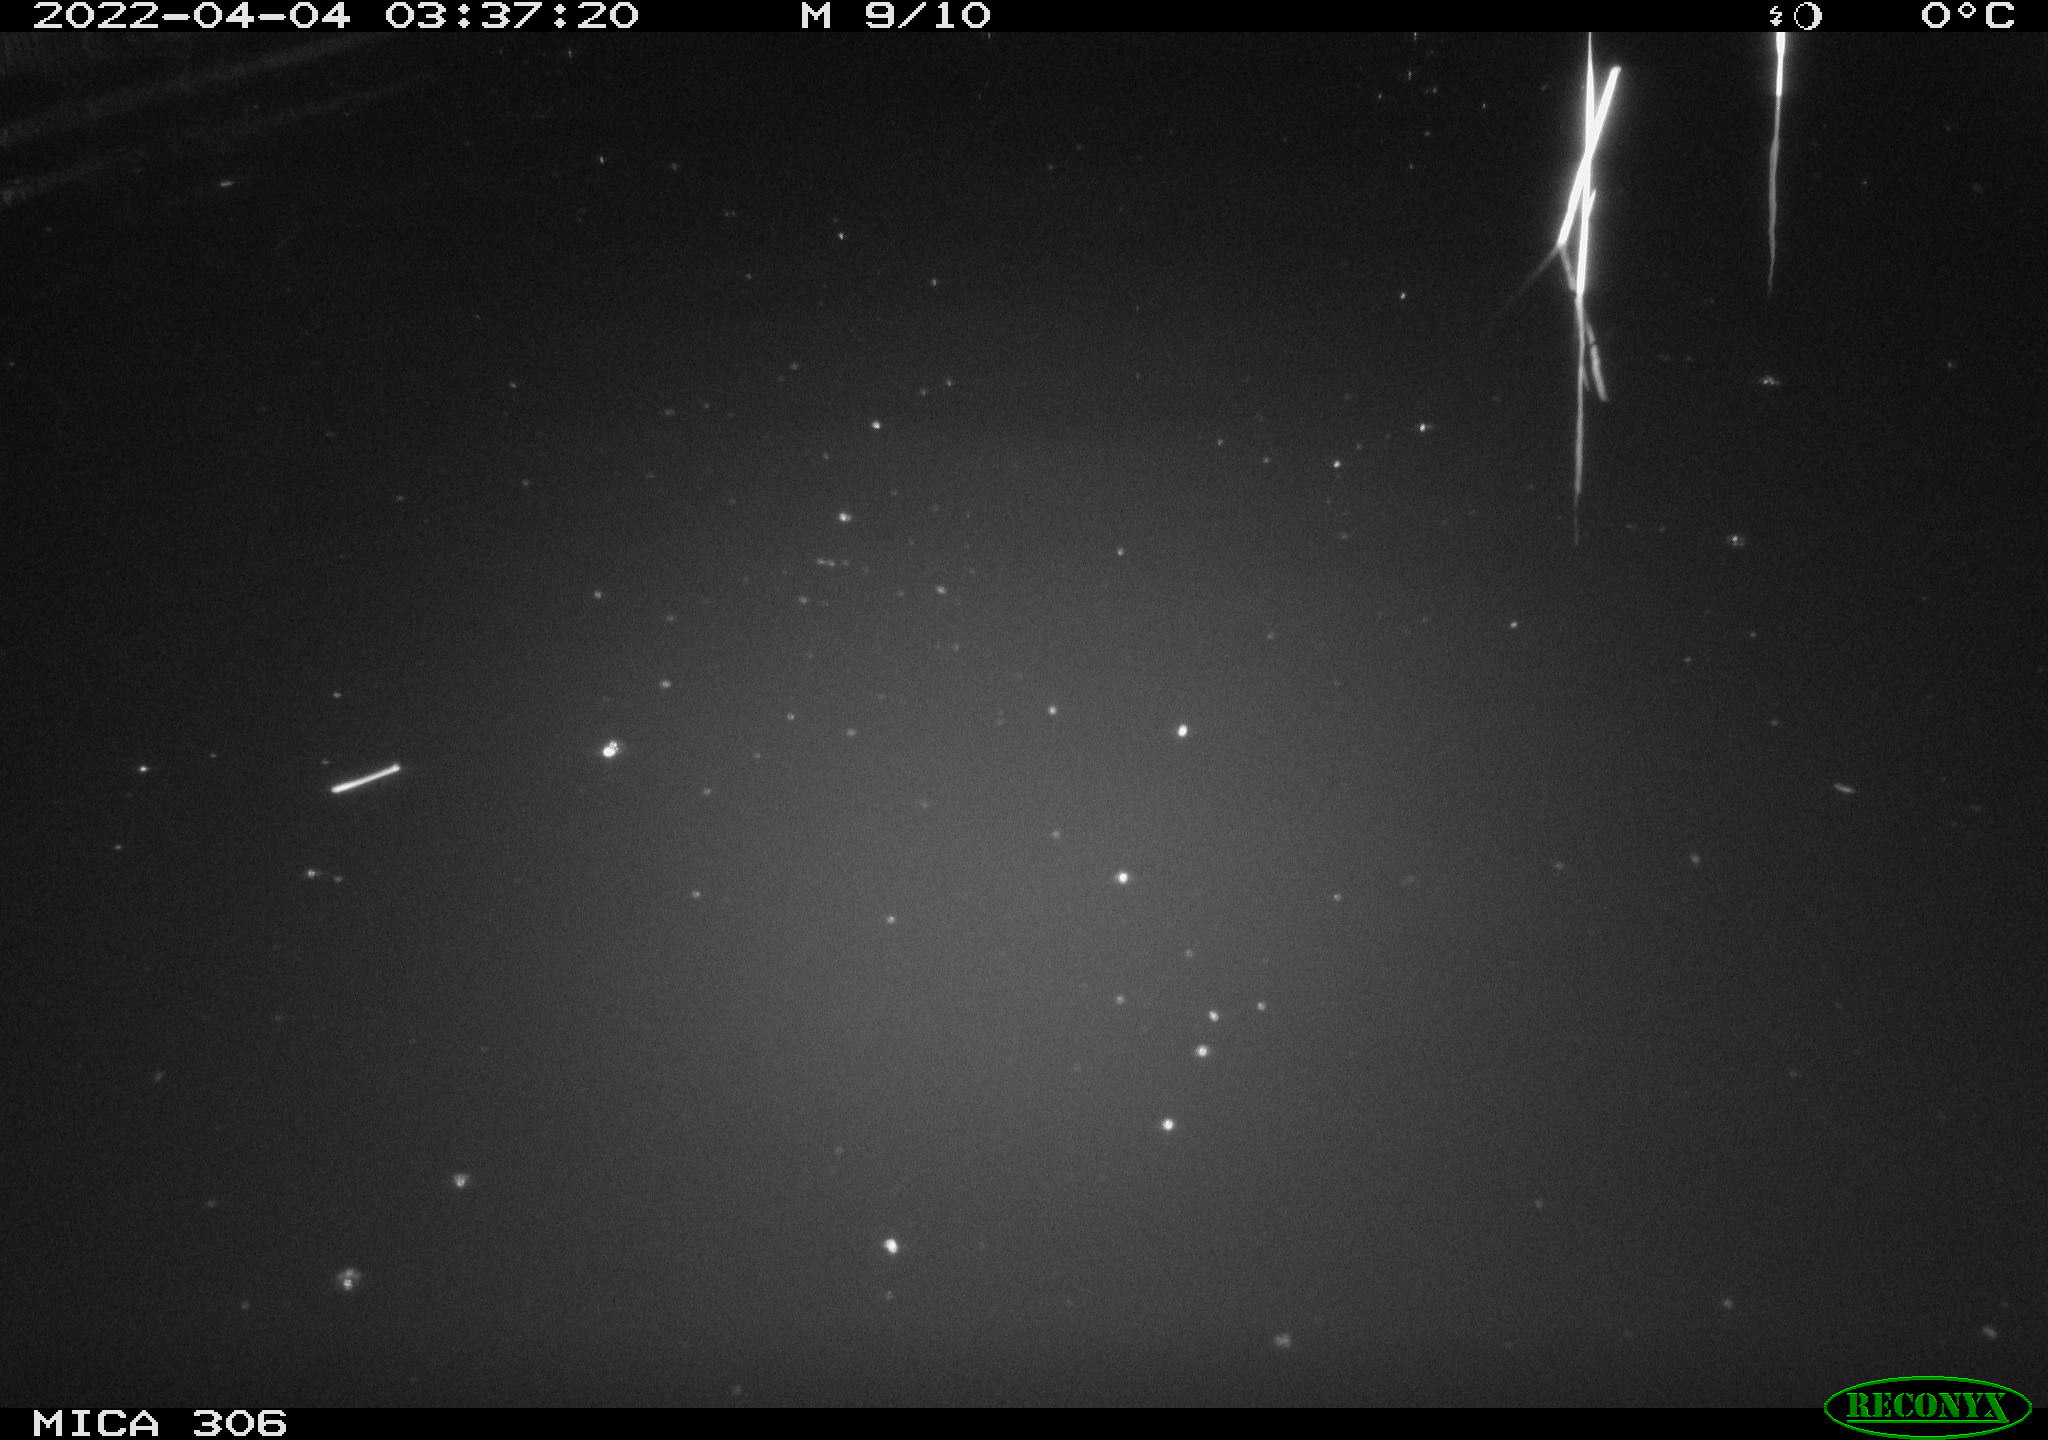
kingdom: Animalia
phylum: Chordata
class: Mammalia
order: Rodentia
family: Cricetidae
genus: Ondatra
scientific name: Ondatra zibethicus
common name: Muskrat
